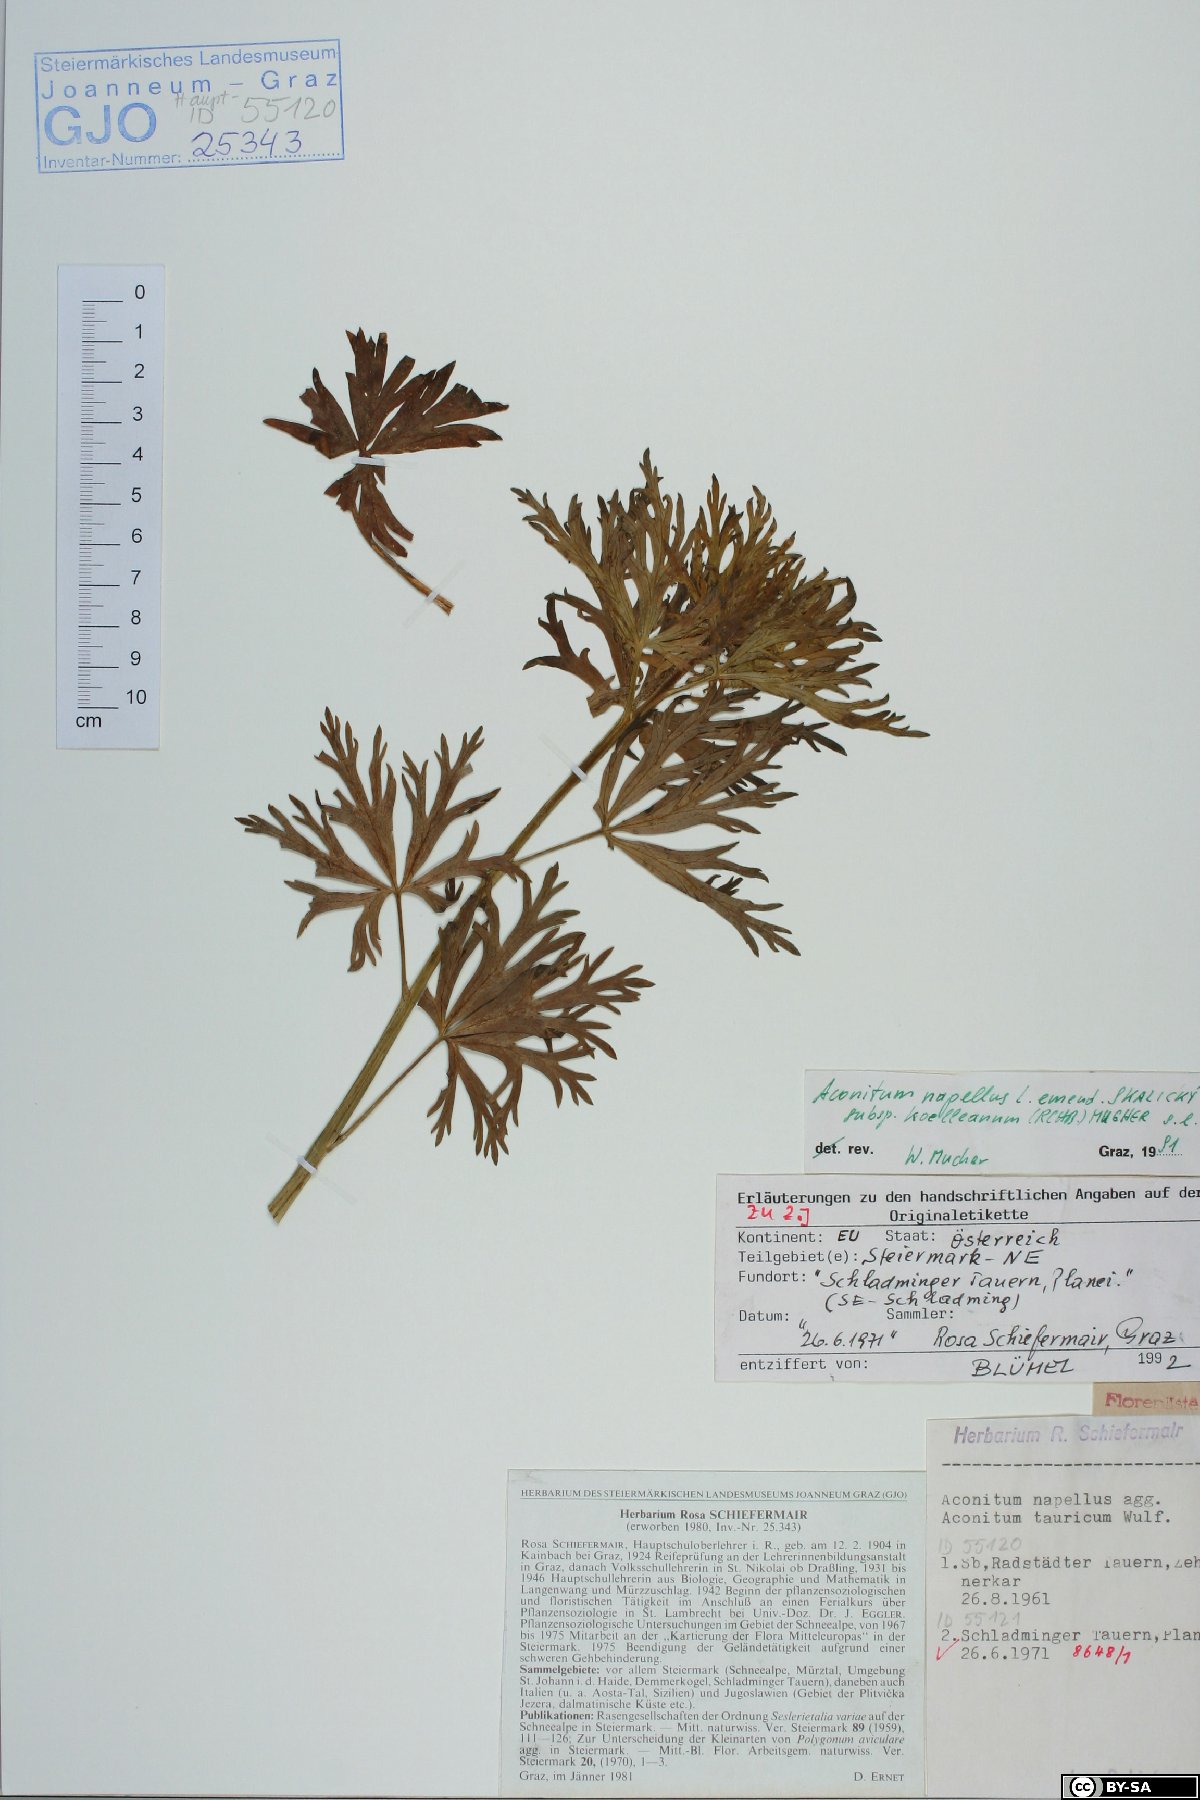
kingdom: Plantae
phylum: Tracheophyta
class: Magnoliopsida
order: Ranunculales
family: Ranunculaceae
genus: Aconitum
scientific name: Aconitum tauricum
